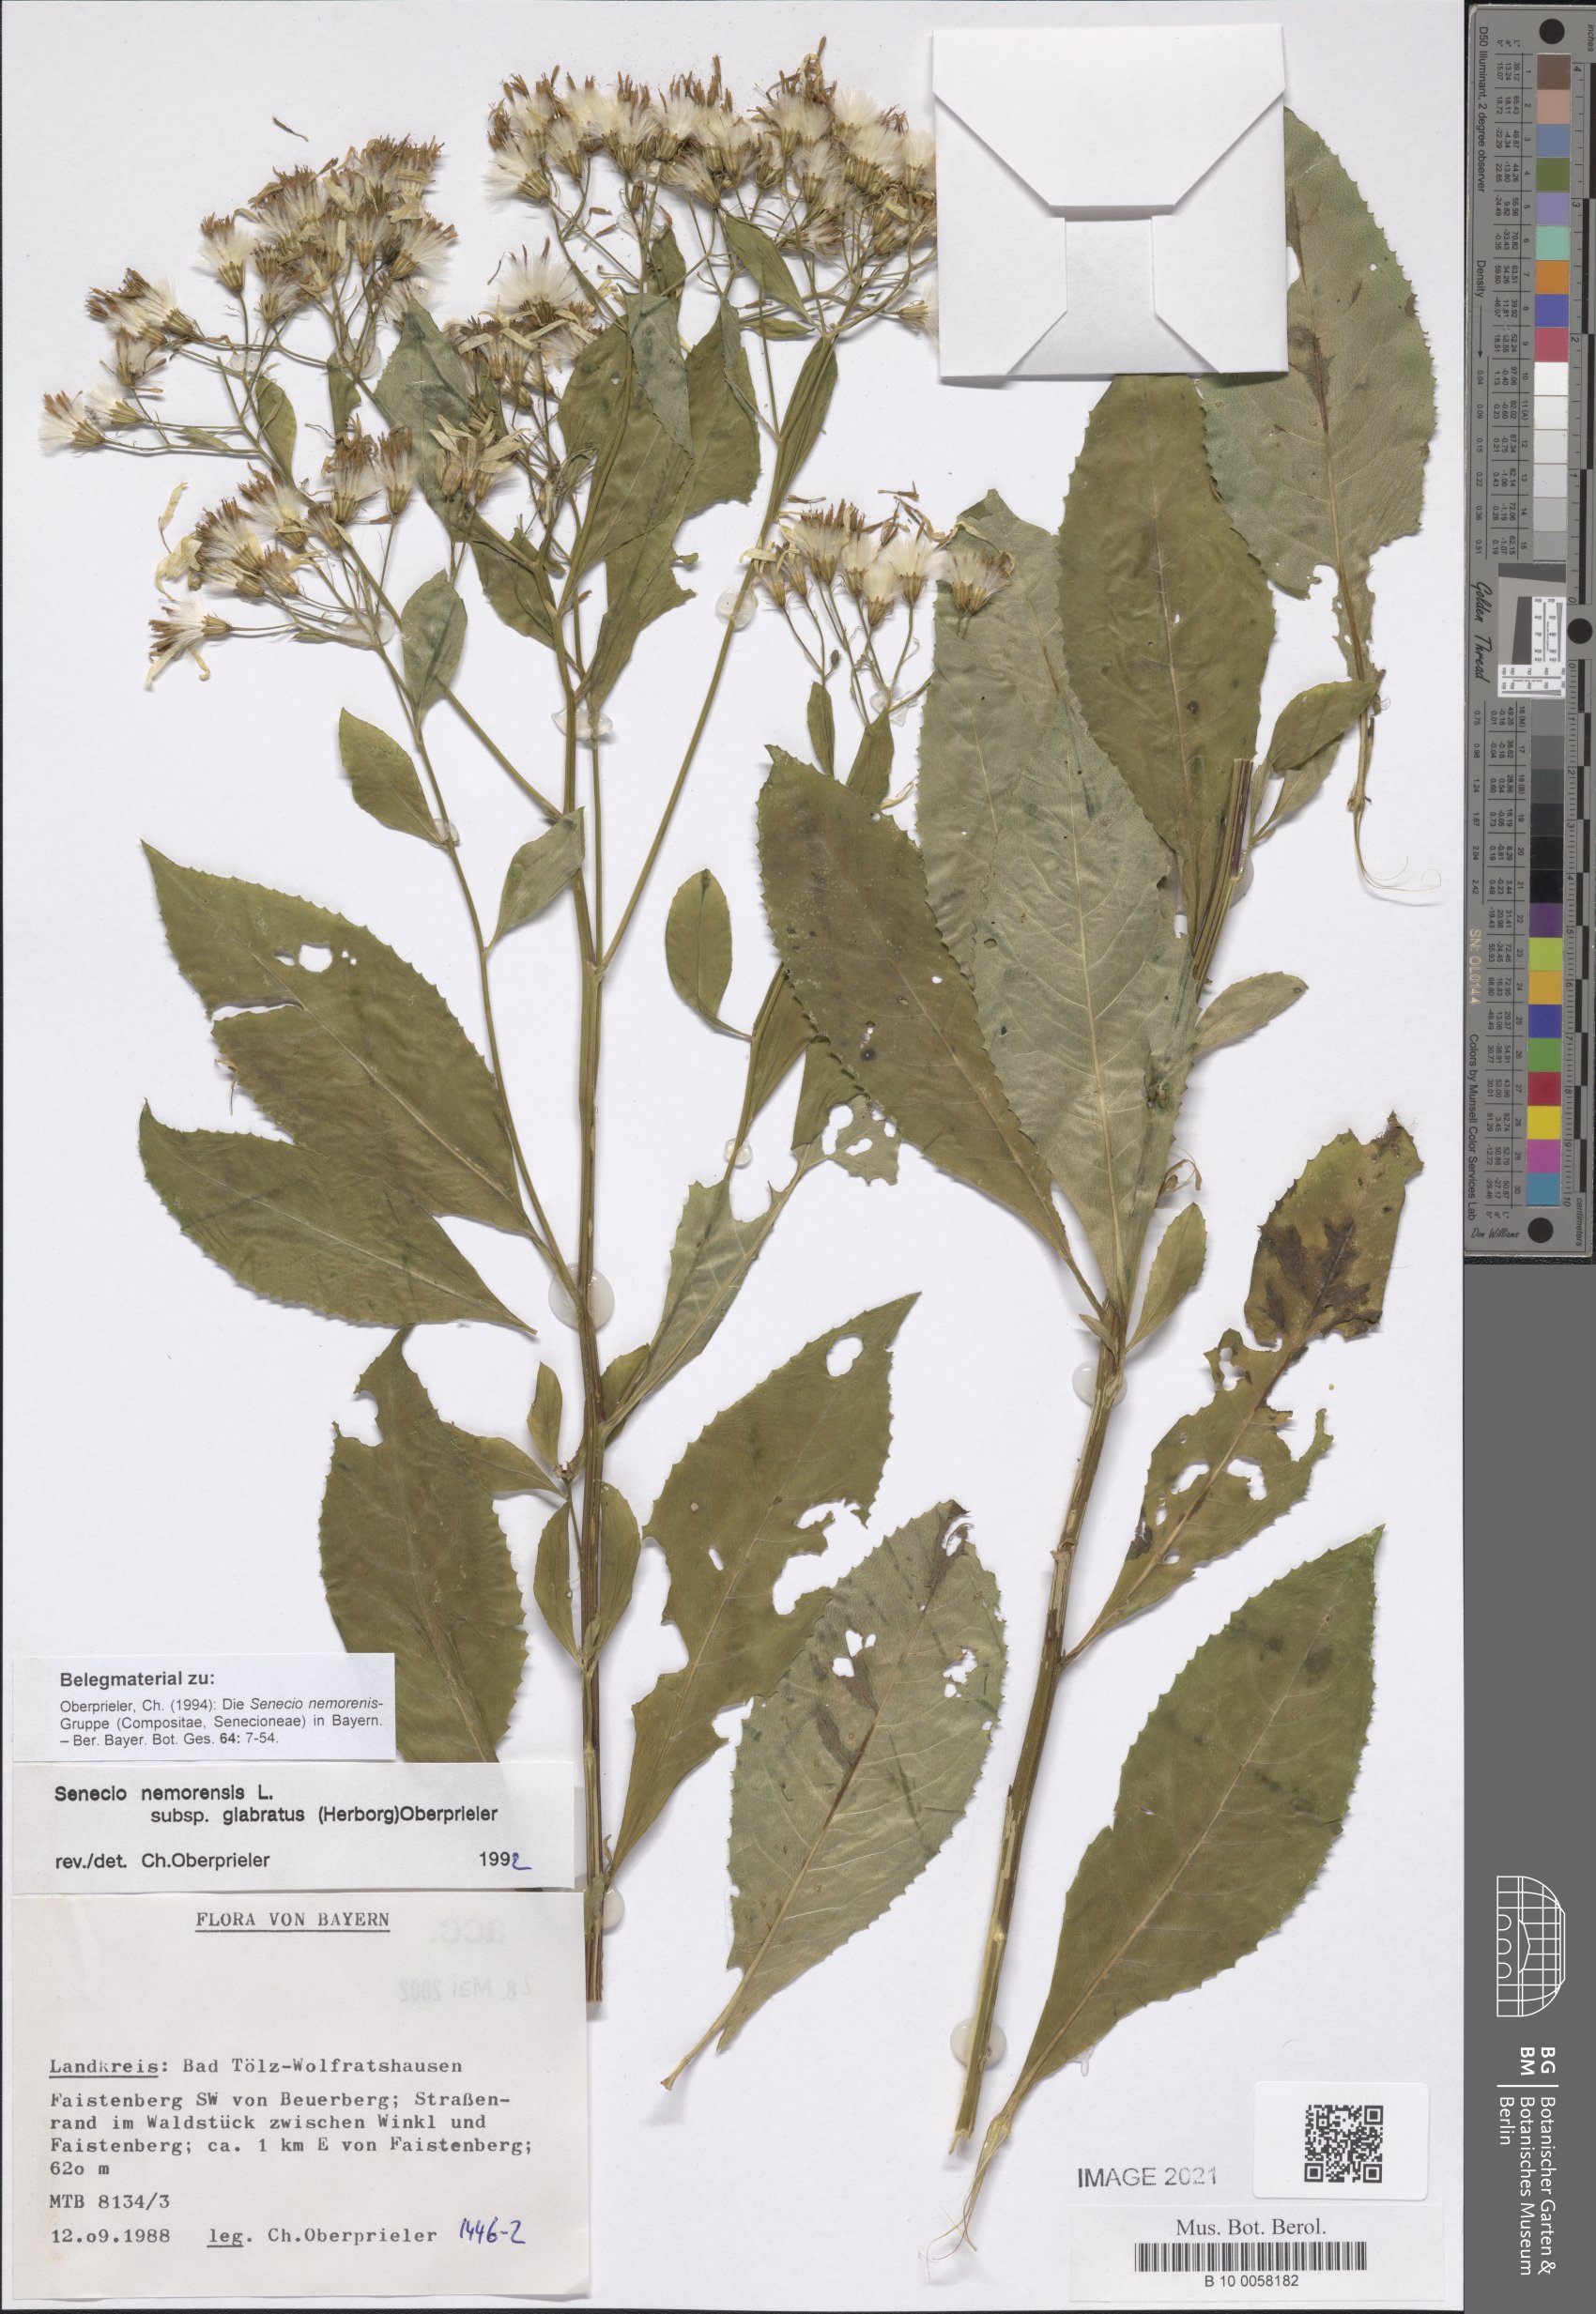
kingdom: Plantae
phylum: Tracheophyta
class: Magnoliopsida
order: Asterales
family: Asteraceae
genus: Senecio
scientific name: Senecio germanicus
